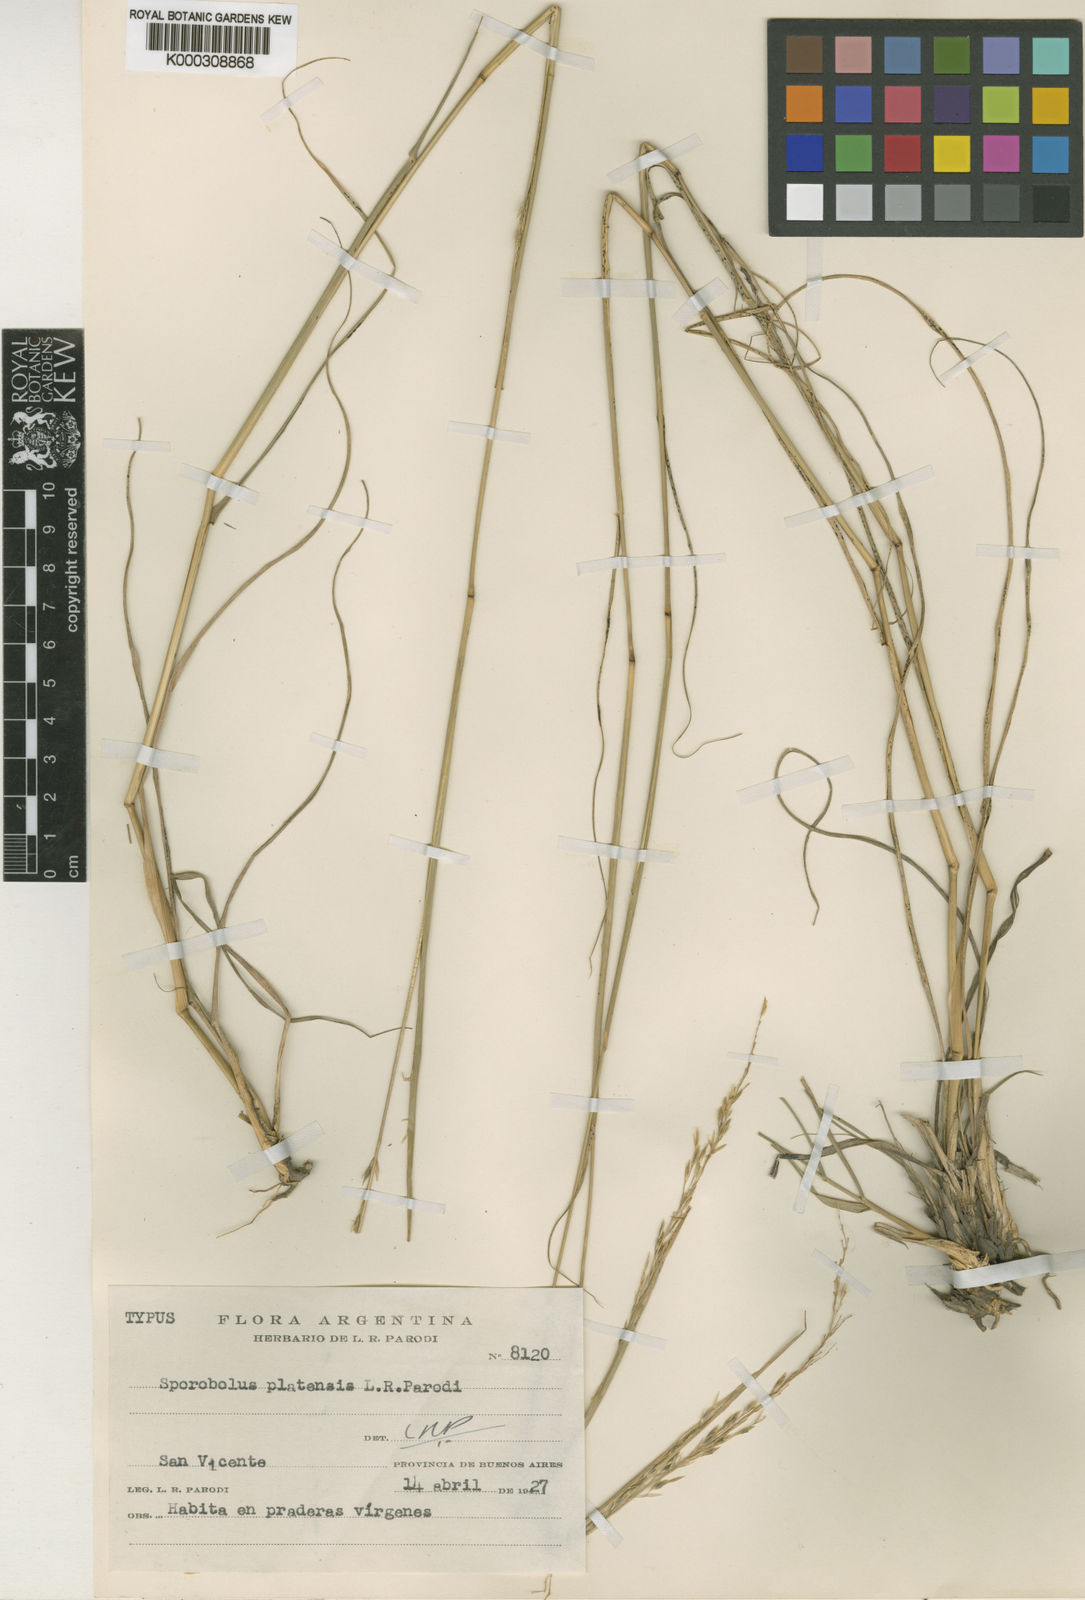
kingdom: Plantae
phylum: Tracheophyta
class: Liliopsida
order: Poales
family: Poaceae
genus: Sporobolus
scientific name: Sporobolus platensis
